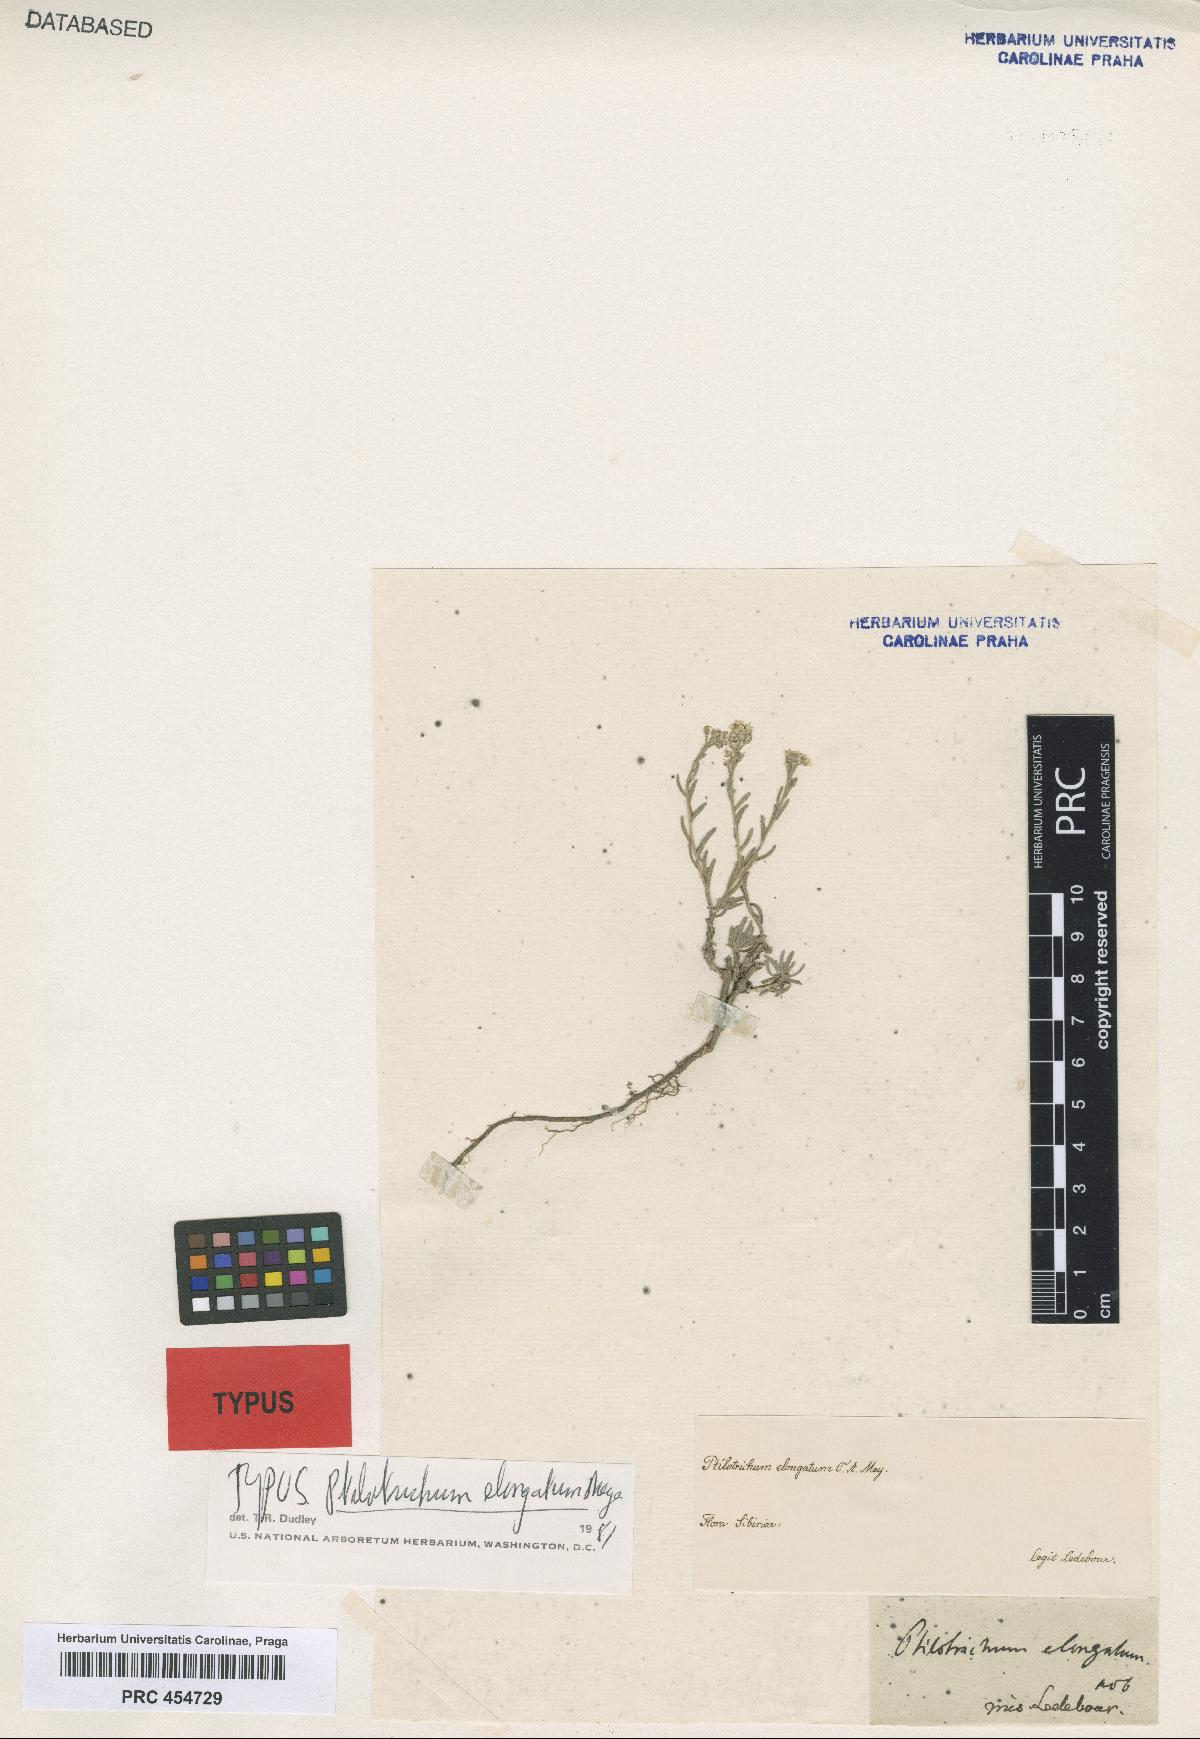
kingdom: Plantae
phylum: Tracheophyta
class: Magnoliopsida
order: Brassicales
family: Brassicaceae
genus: Alyssum
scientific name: Alyssum lenense
